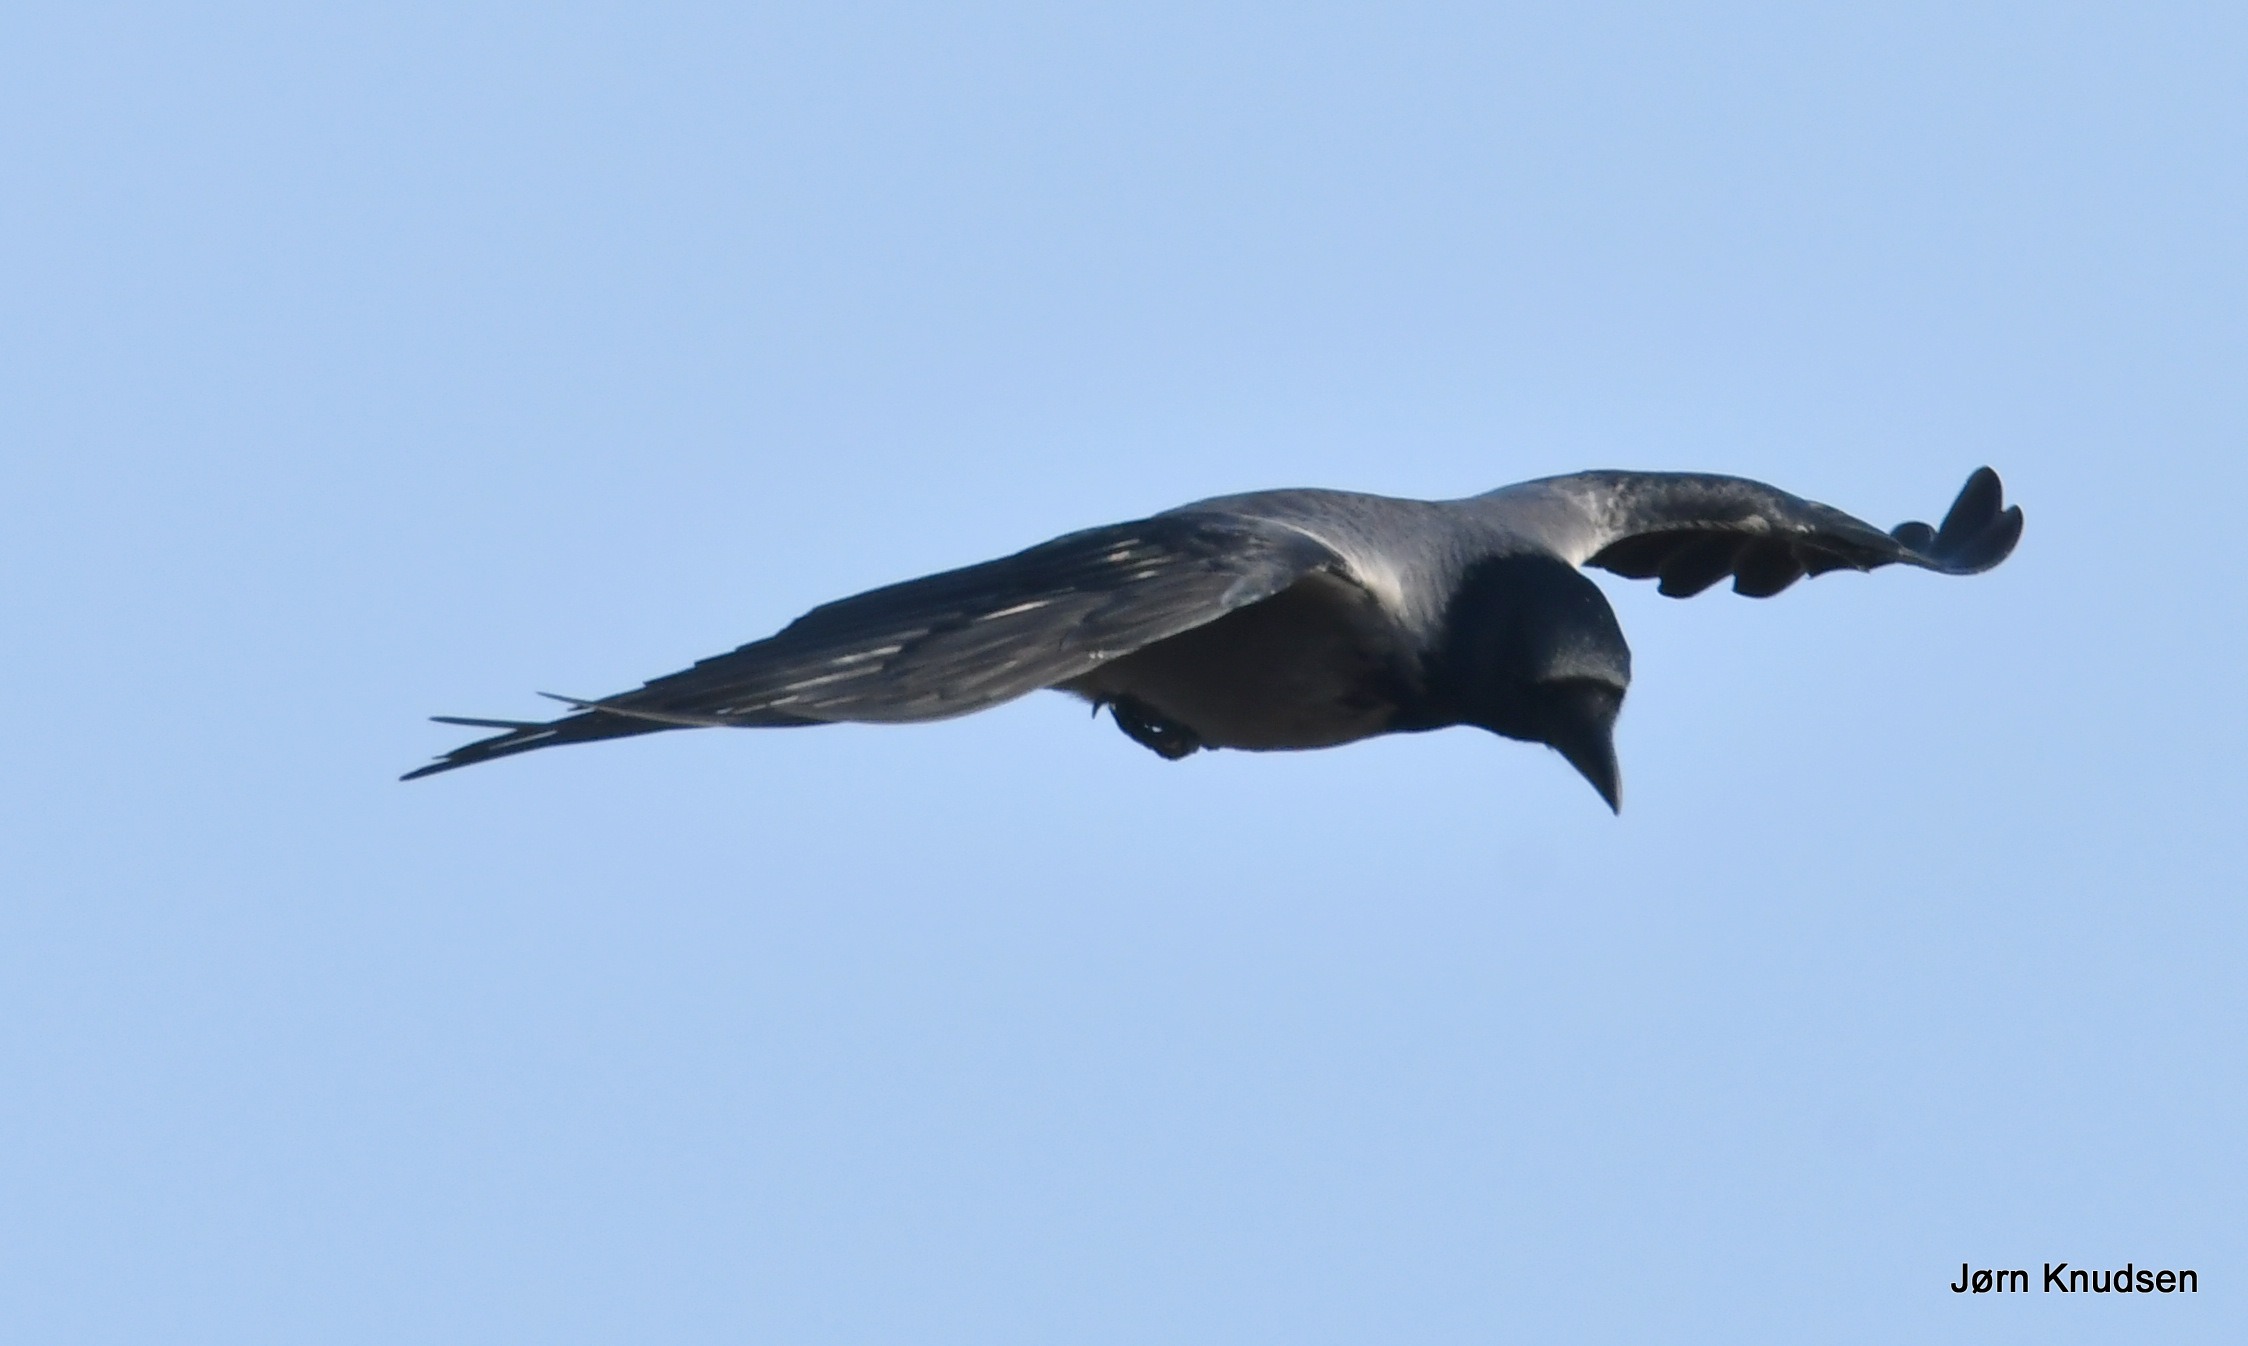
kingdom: Animalia
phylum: Chordata
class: Aves
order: Passeriformes
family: Corvidae
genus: Corvus
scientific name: Corvus cornix
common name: Gråkrage
